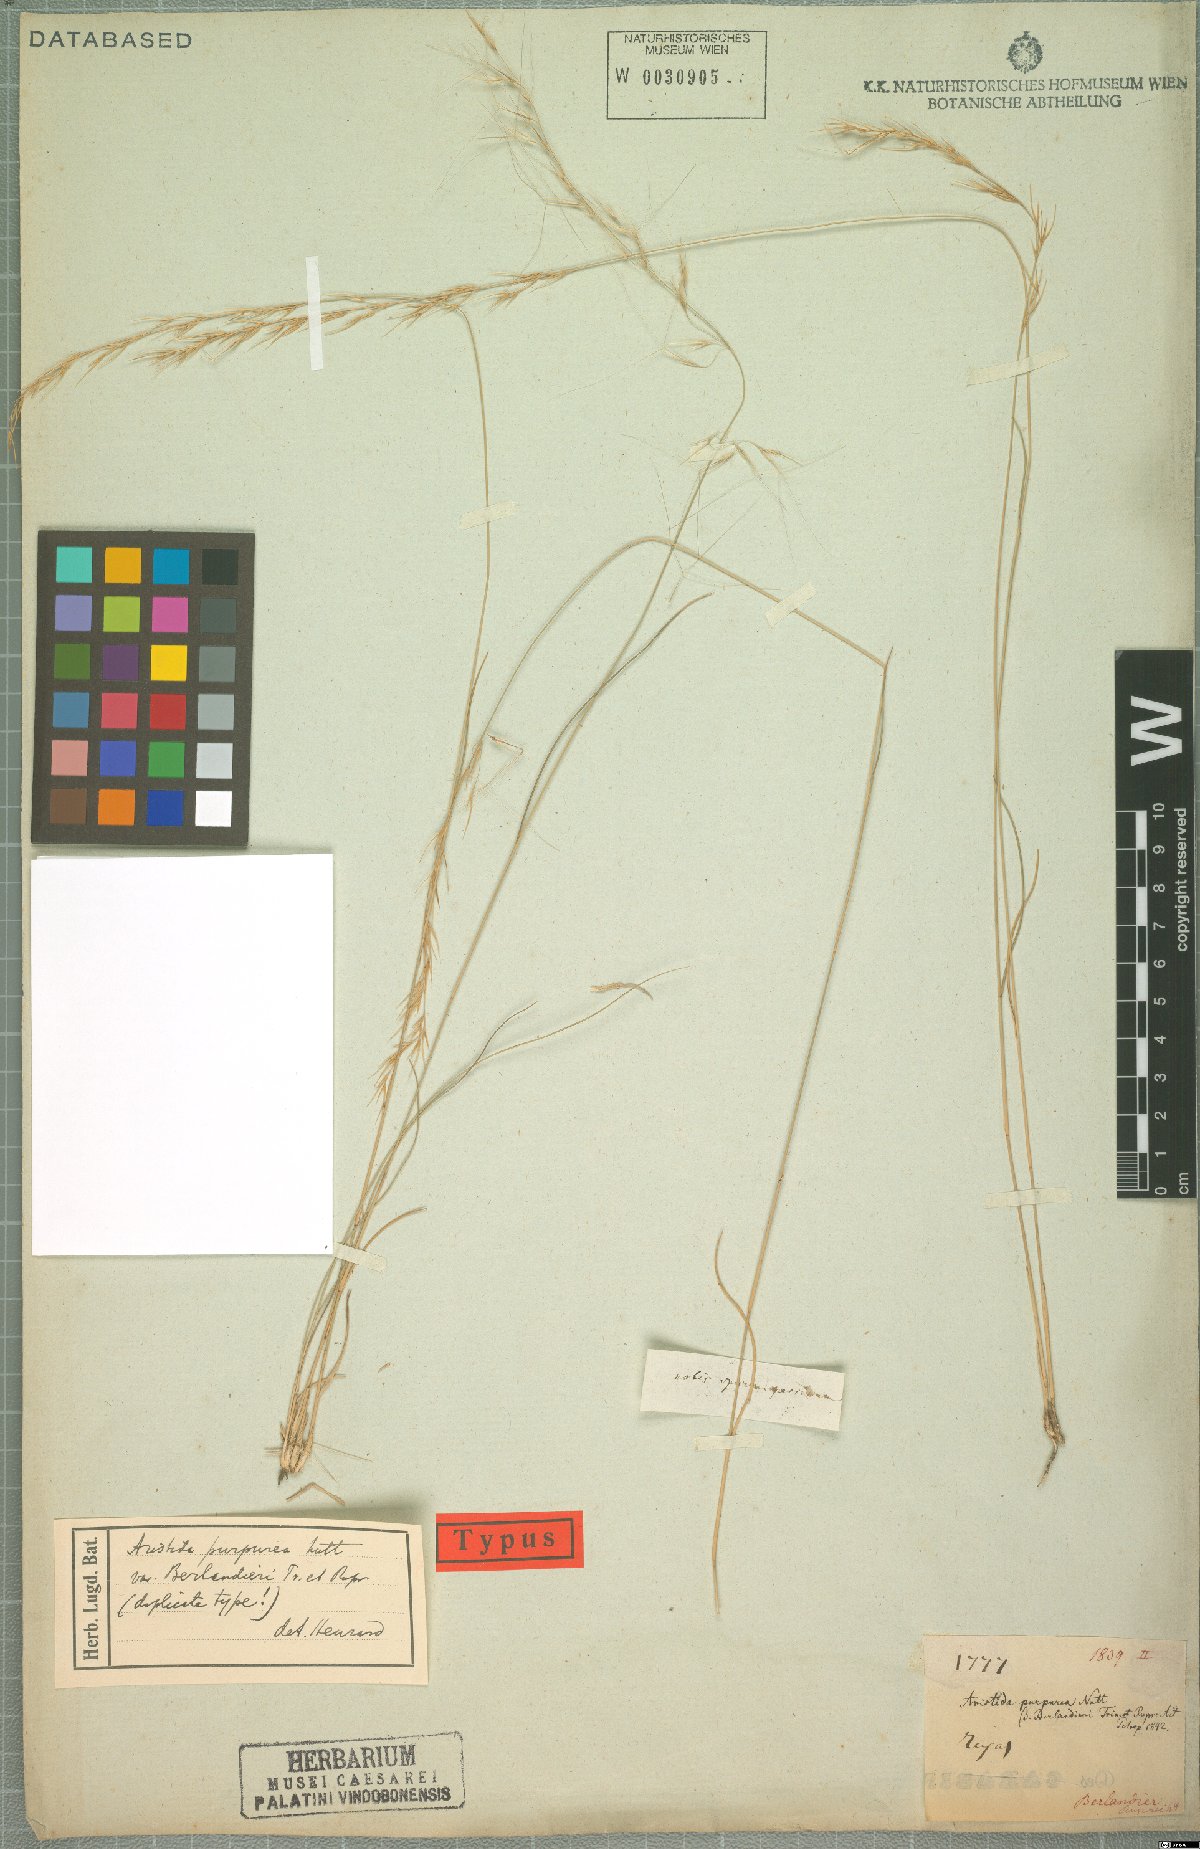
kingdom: Plantae
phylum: Tracheophyta
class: Liliopsida
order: Poales
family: Poaceae
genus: Aristida
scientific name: Aristida purpurea
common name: Purple threeawn
